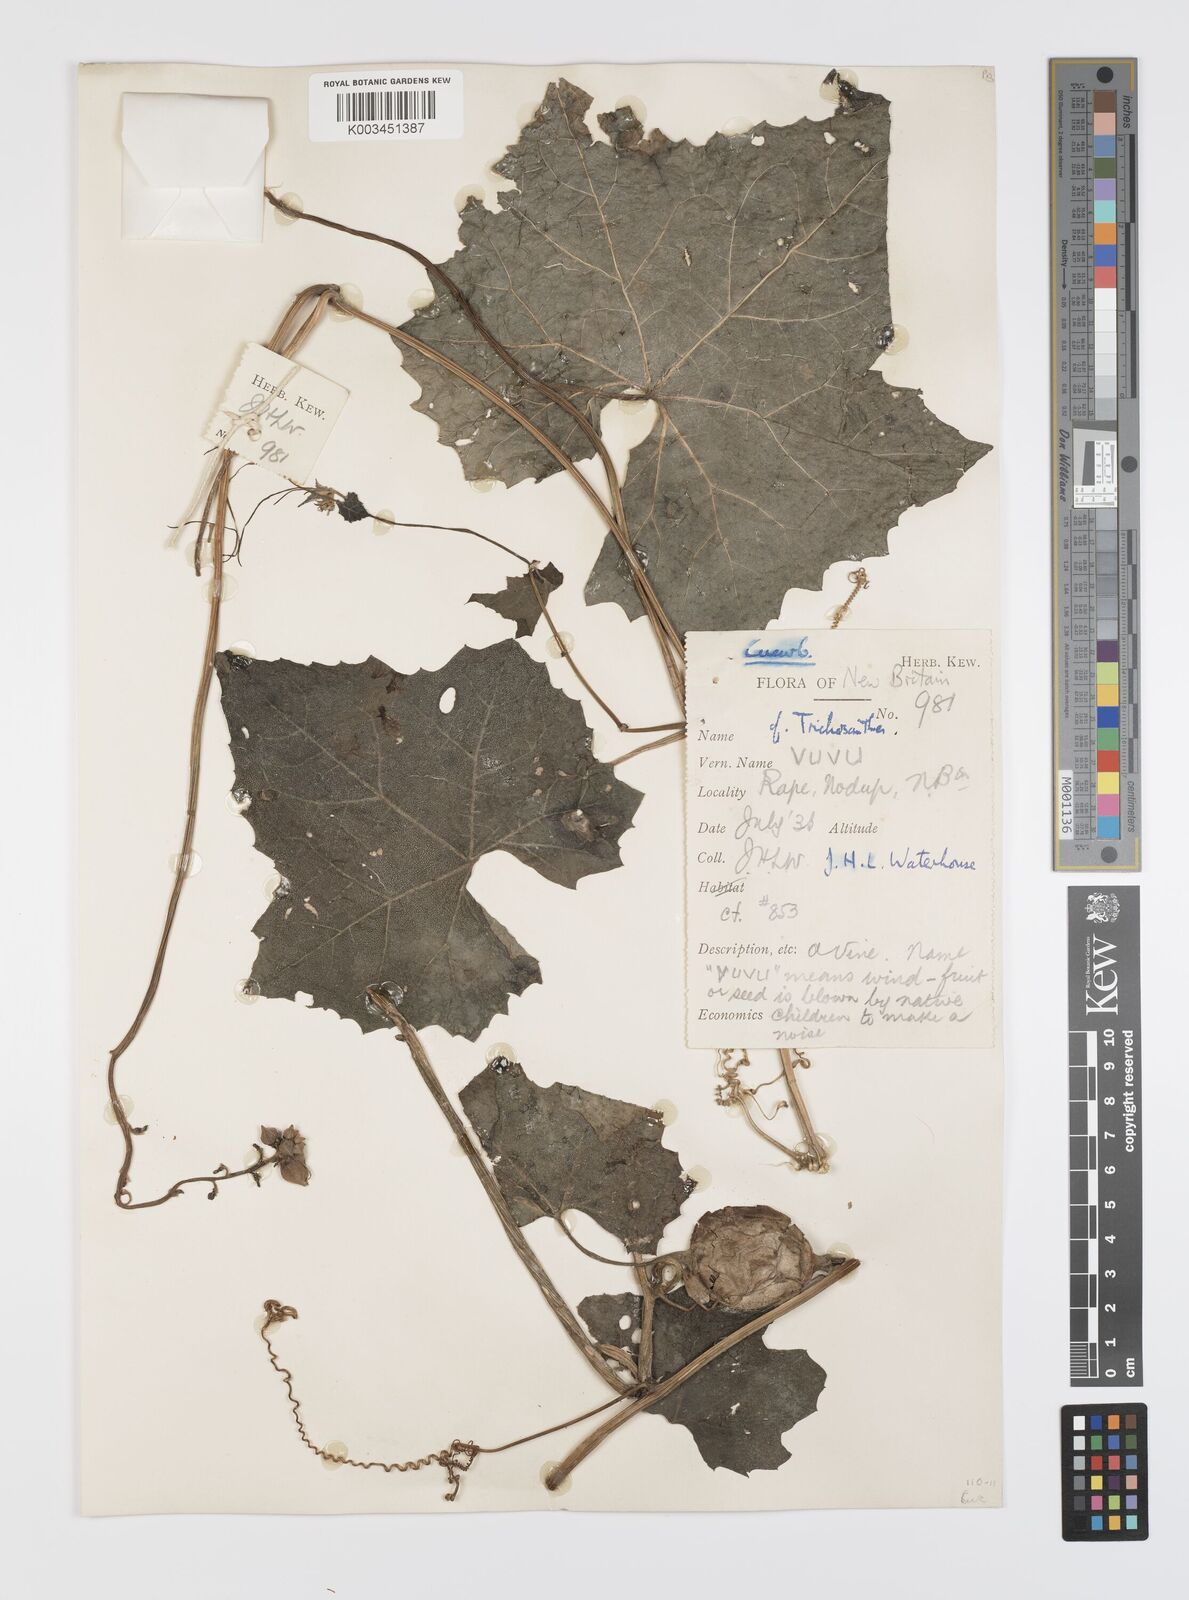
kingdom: Plantae
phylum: Tracheophyta
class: Magnoliopsida
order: Cucurbitales
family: Cucurbitaceae
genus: Luffa
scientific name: Luffa
